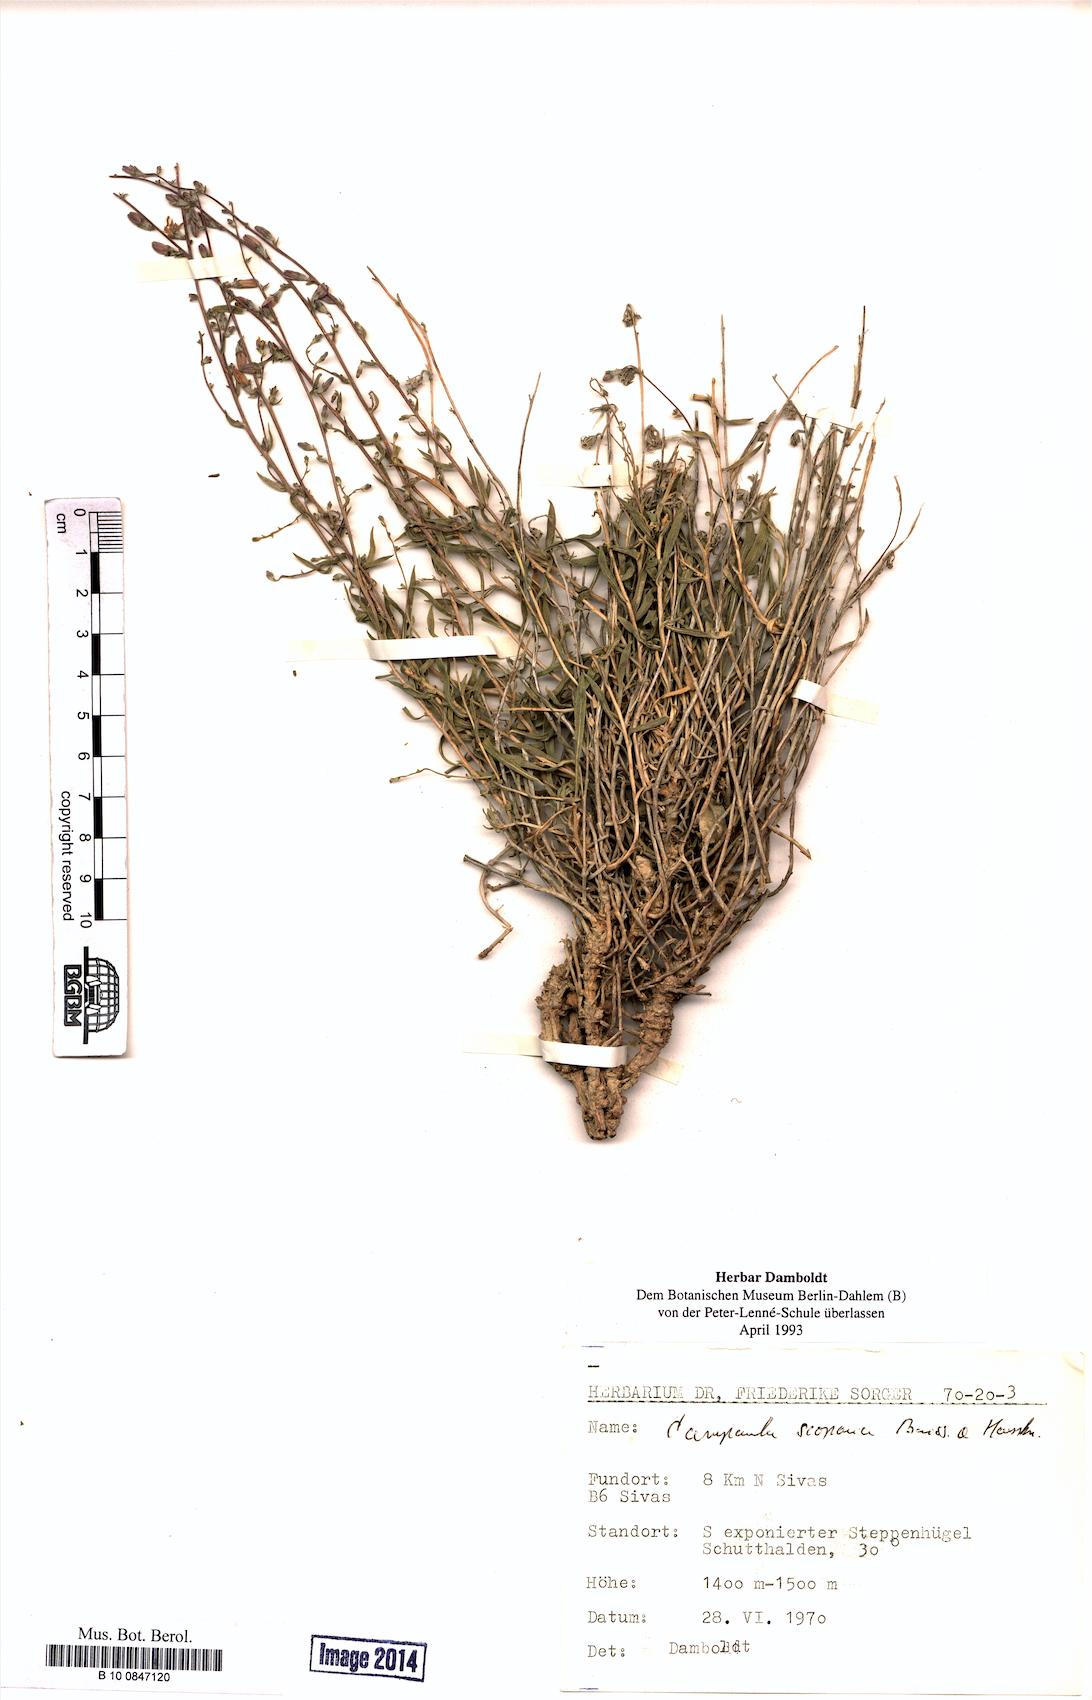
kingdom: Plantae
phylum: Tracheophyta
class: Magnoliopsida
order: Asterales
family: Campanulaceae
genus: Campanula
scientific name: Campanula scoparia
